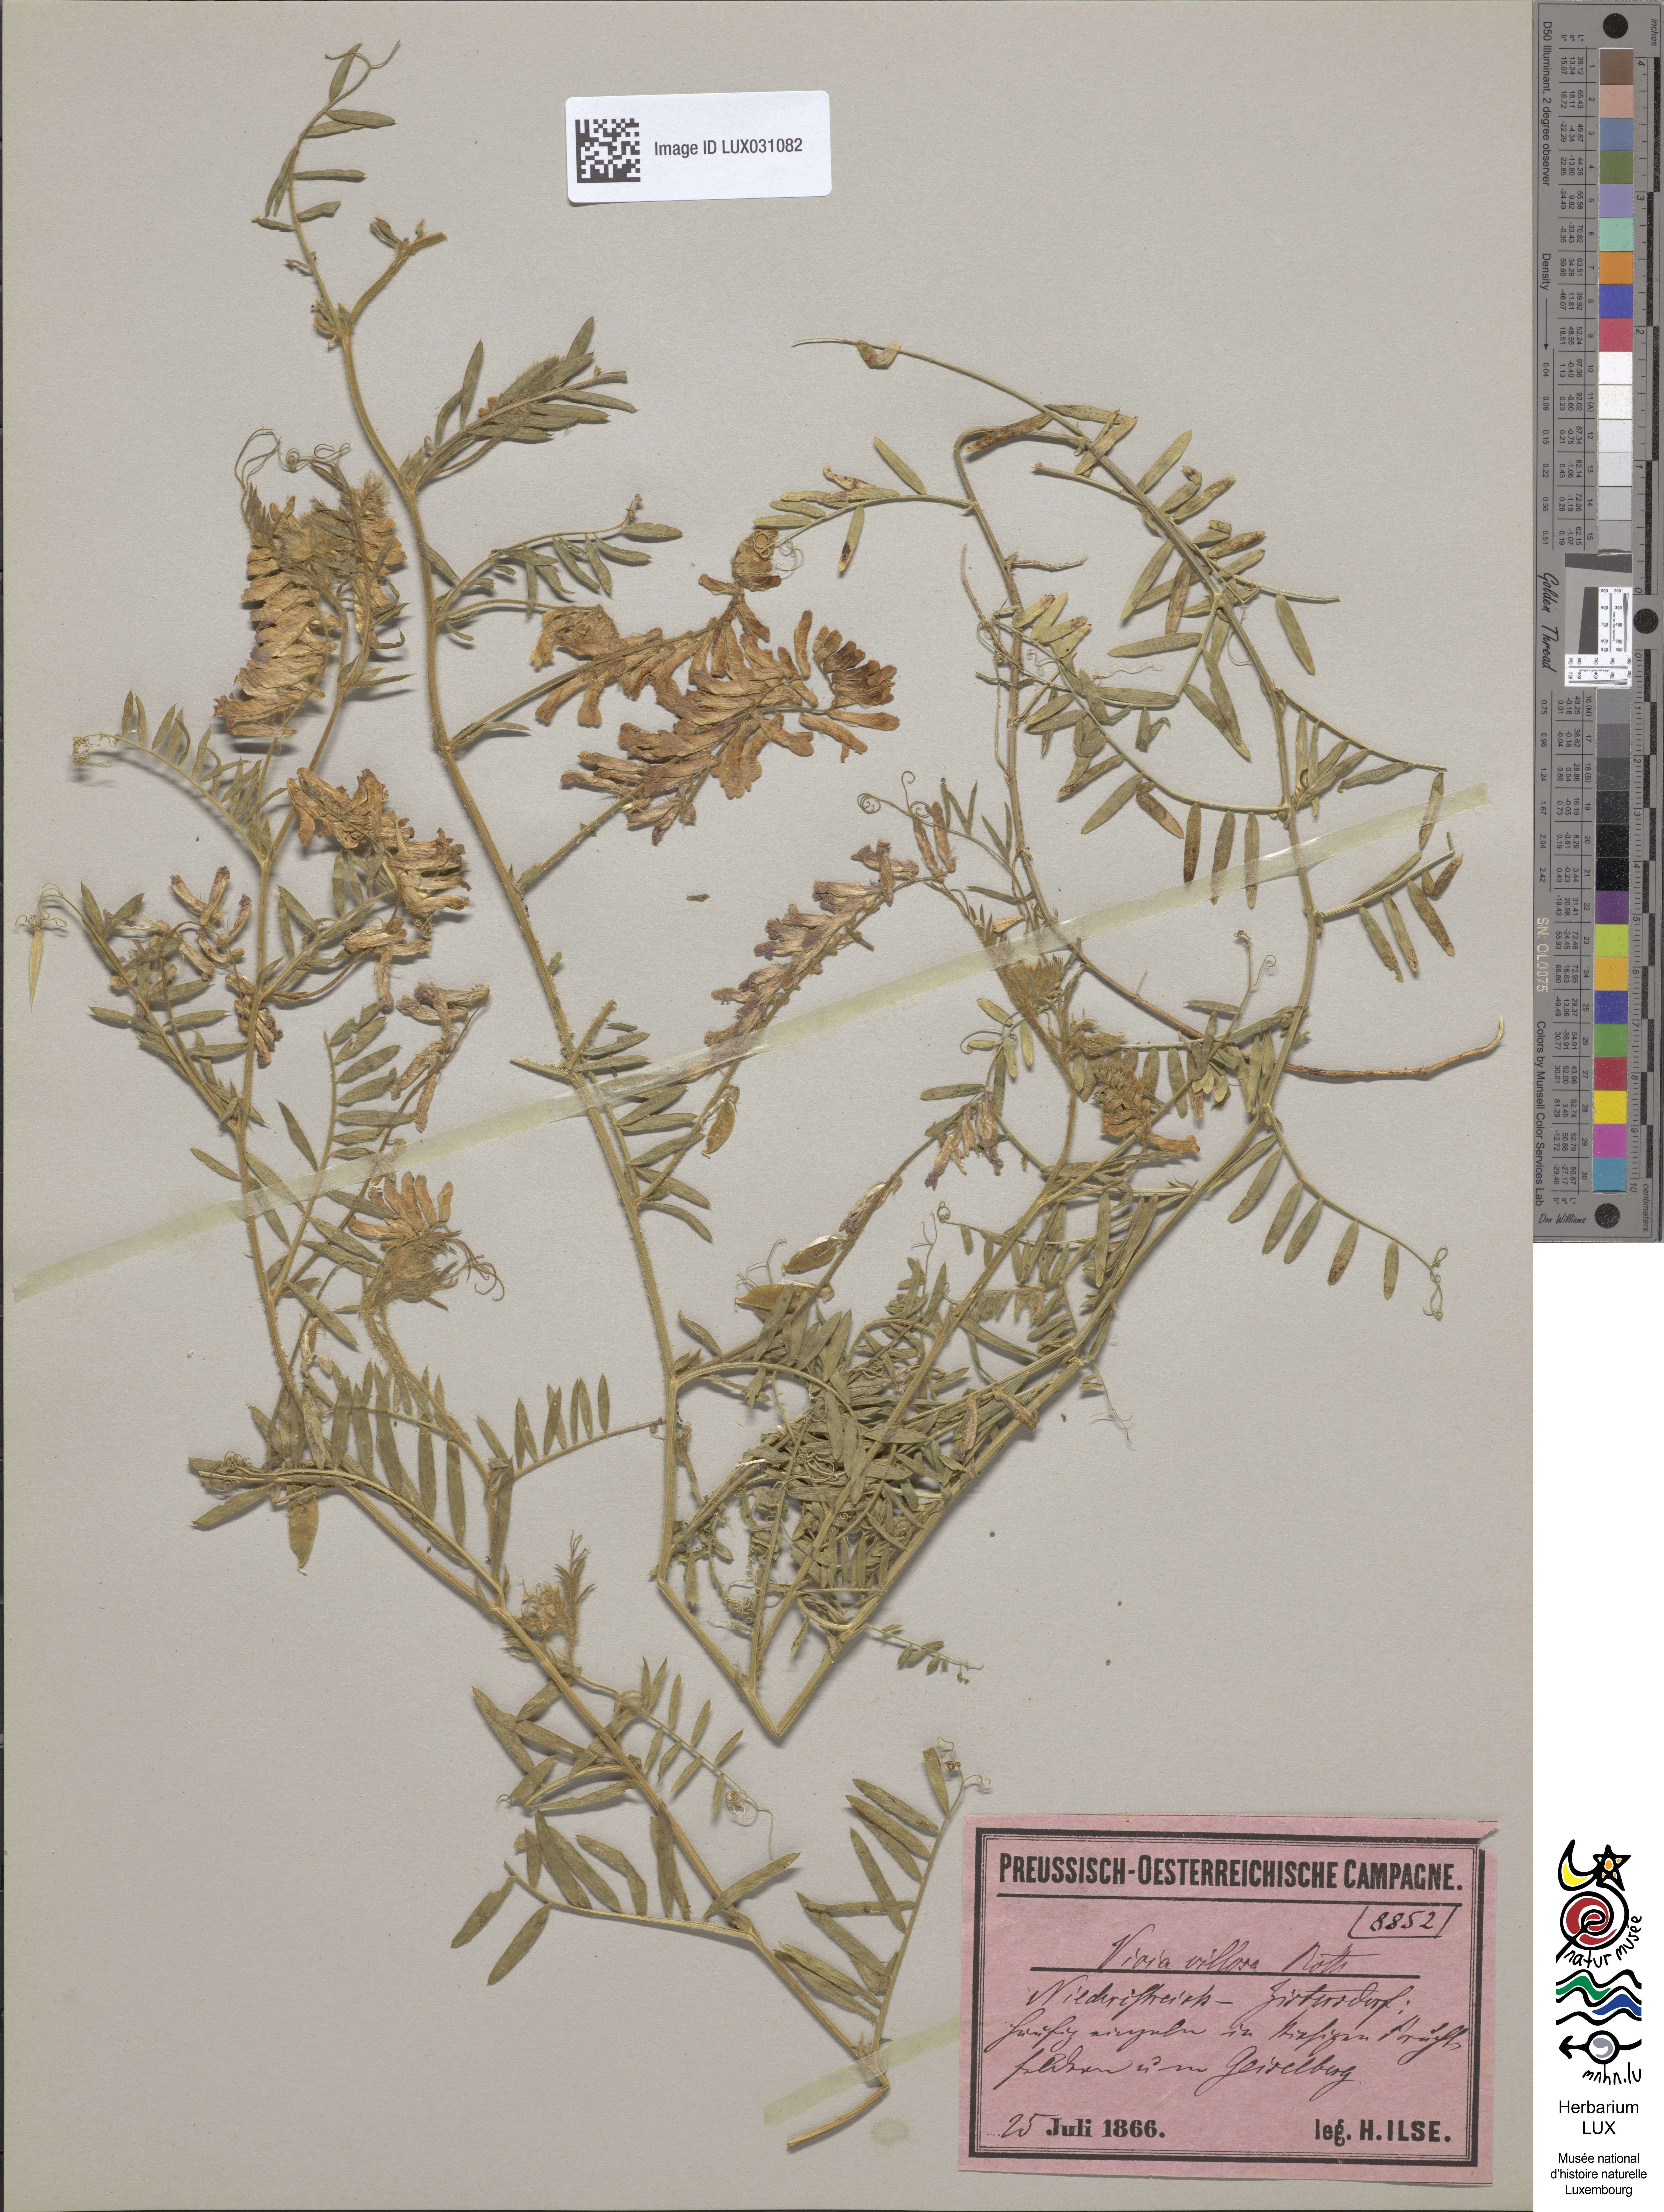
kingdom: Plantae
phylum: Tracheophyta
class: Magnoliopsida
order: Fabales
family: Fabaceae
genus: Vicia
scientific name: Vicia villosa
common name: Fodder vetch
